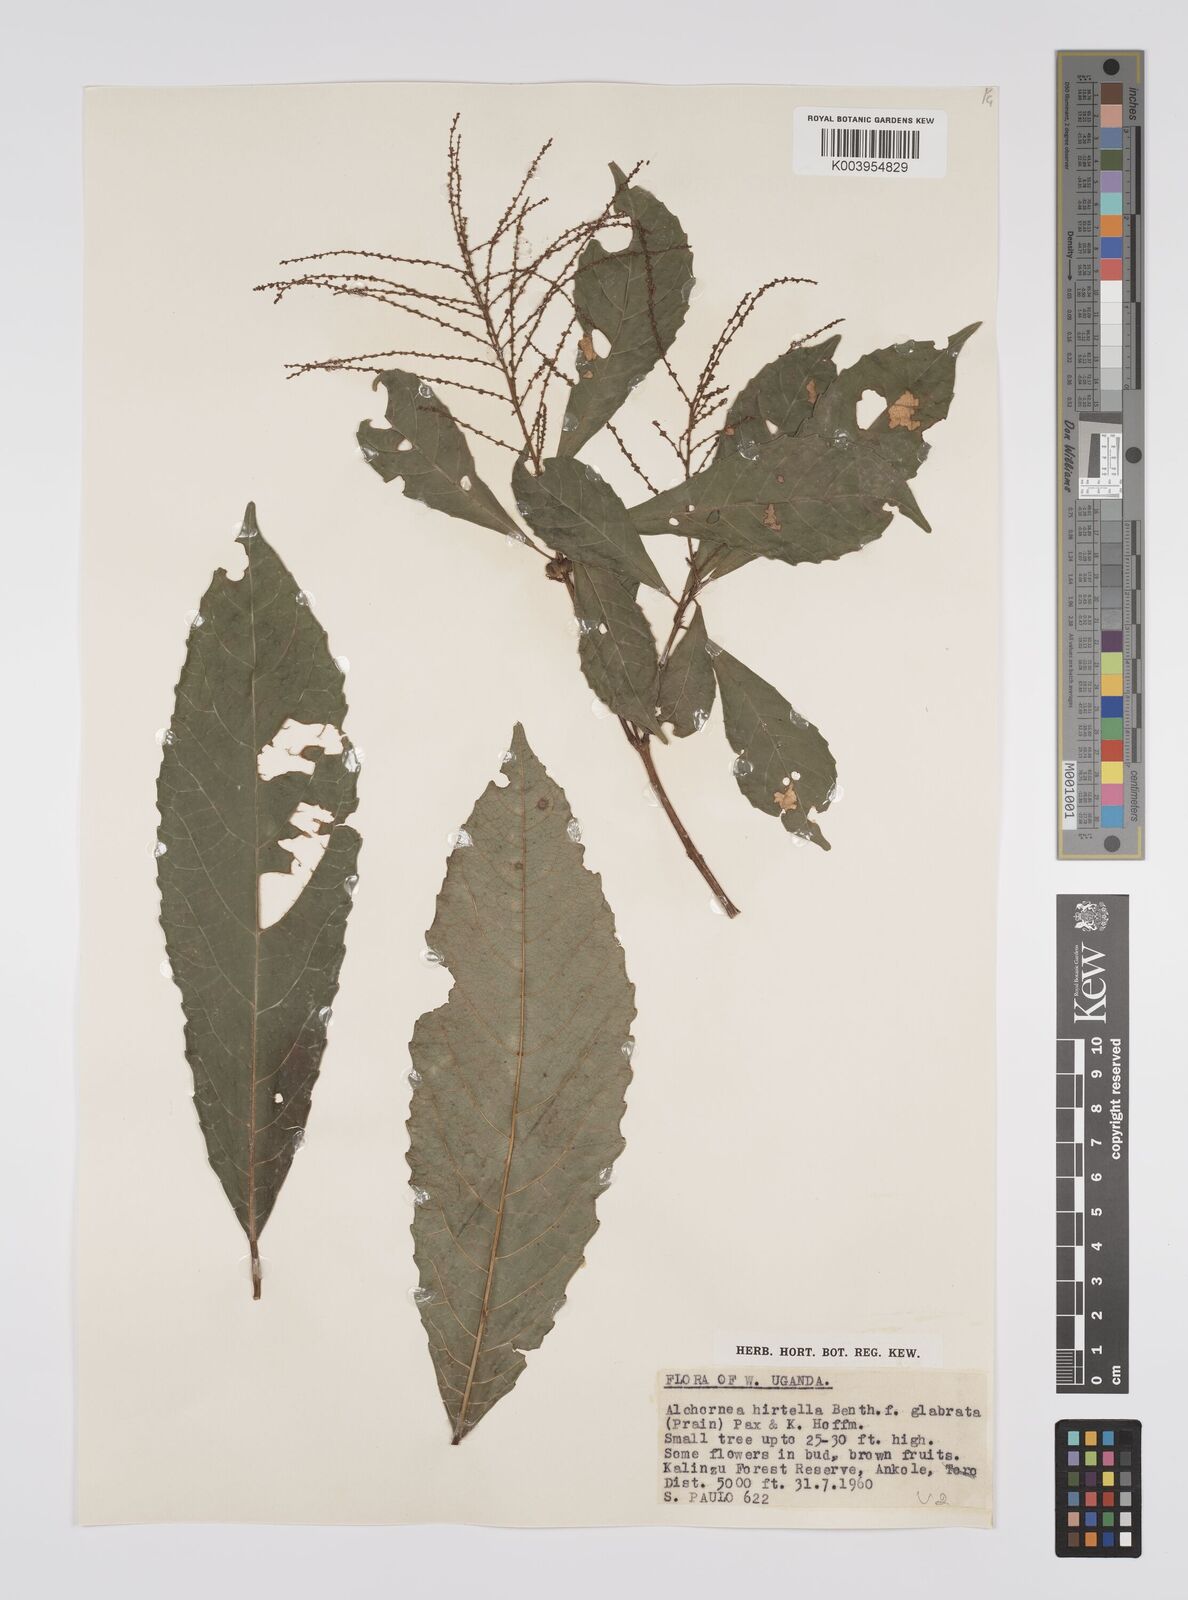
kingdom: Plantae
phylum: Tracheophyta
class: Magnoliopsida
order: Malpighiales
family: Euphorbiaceae
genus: Alchornea
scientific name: Alchornea hirtella
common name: Forest bead-string
